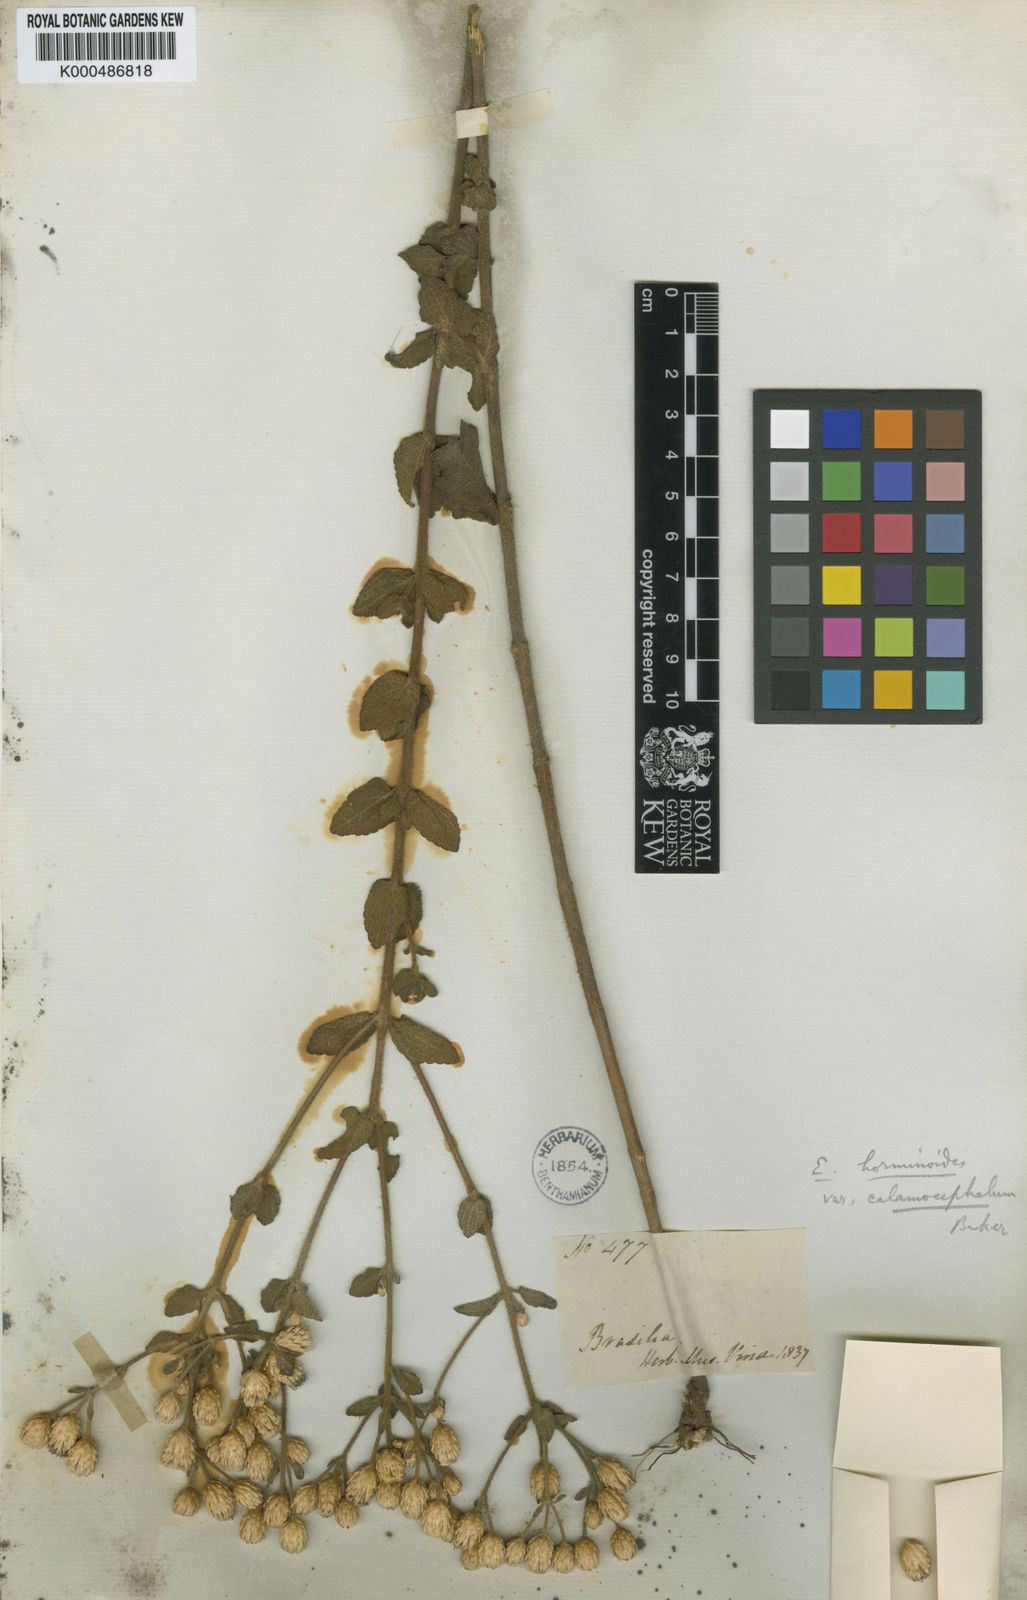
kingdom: Plantae
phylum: Tracheophyta
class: Magnoliopsida
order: Asterales
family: Asteraceae
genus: Chromolaena
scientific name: Chromolaena horminoides
